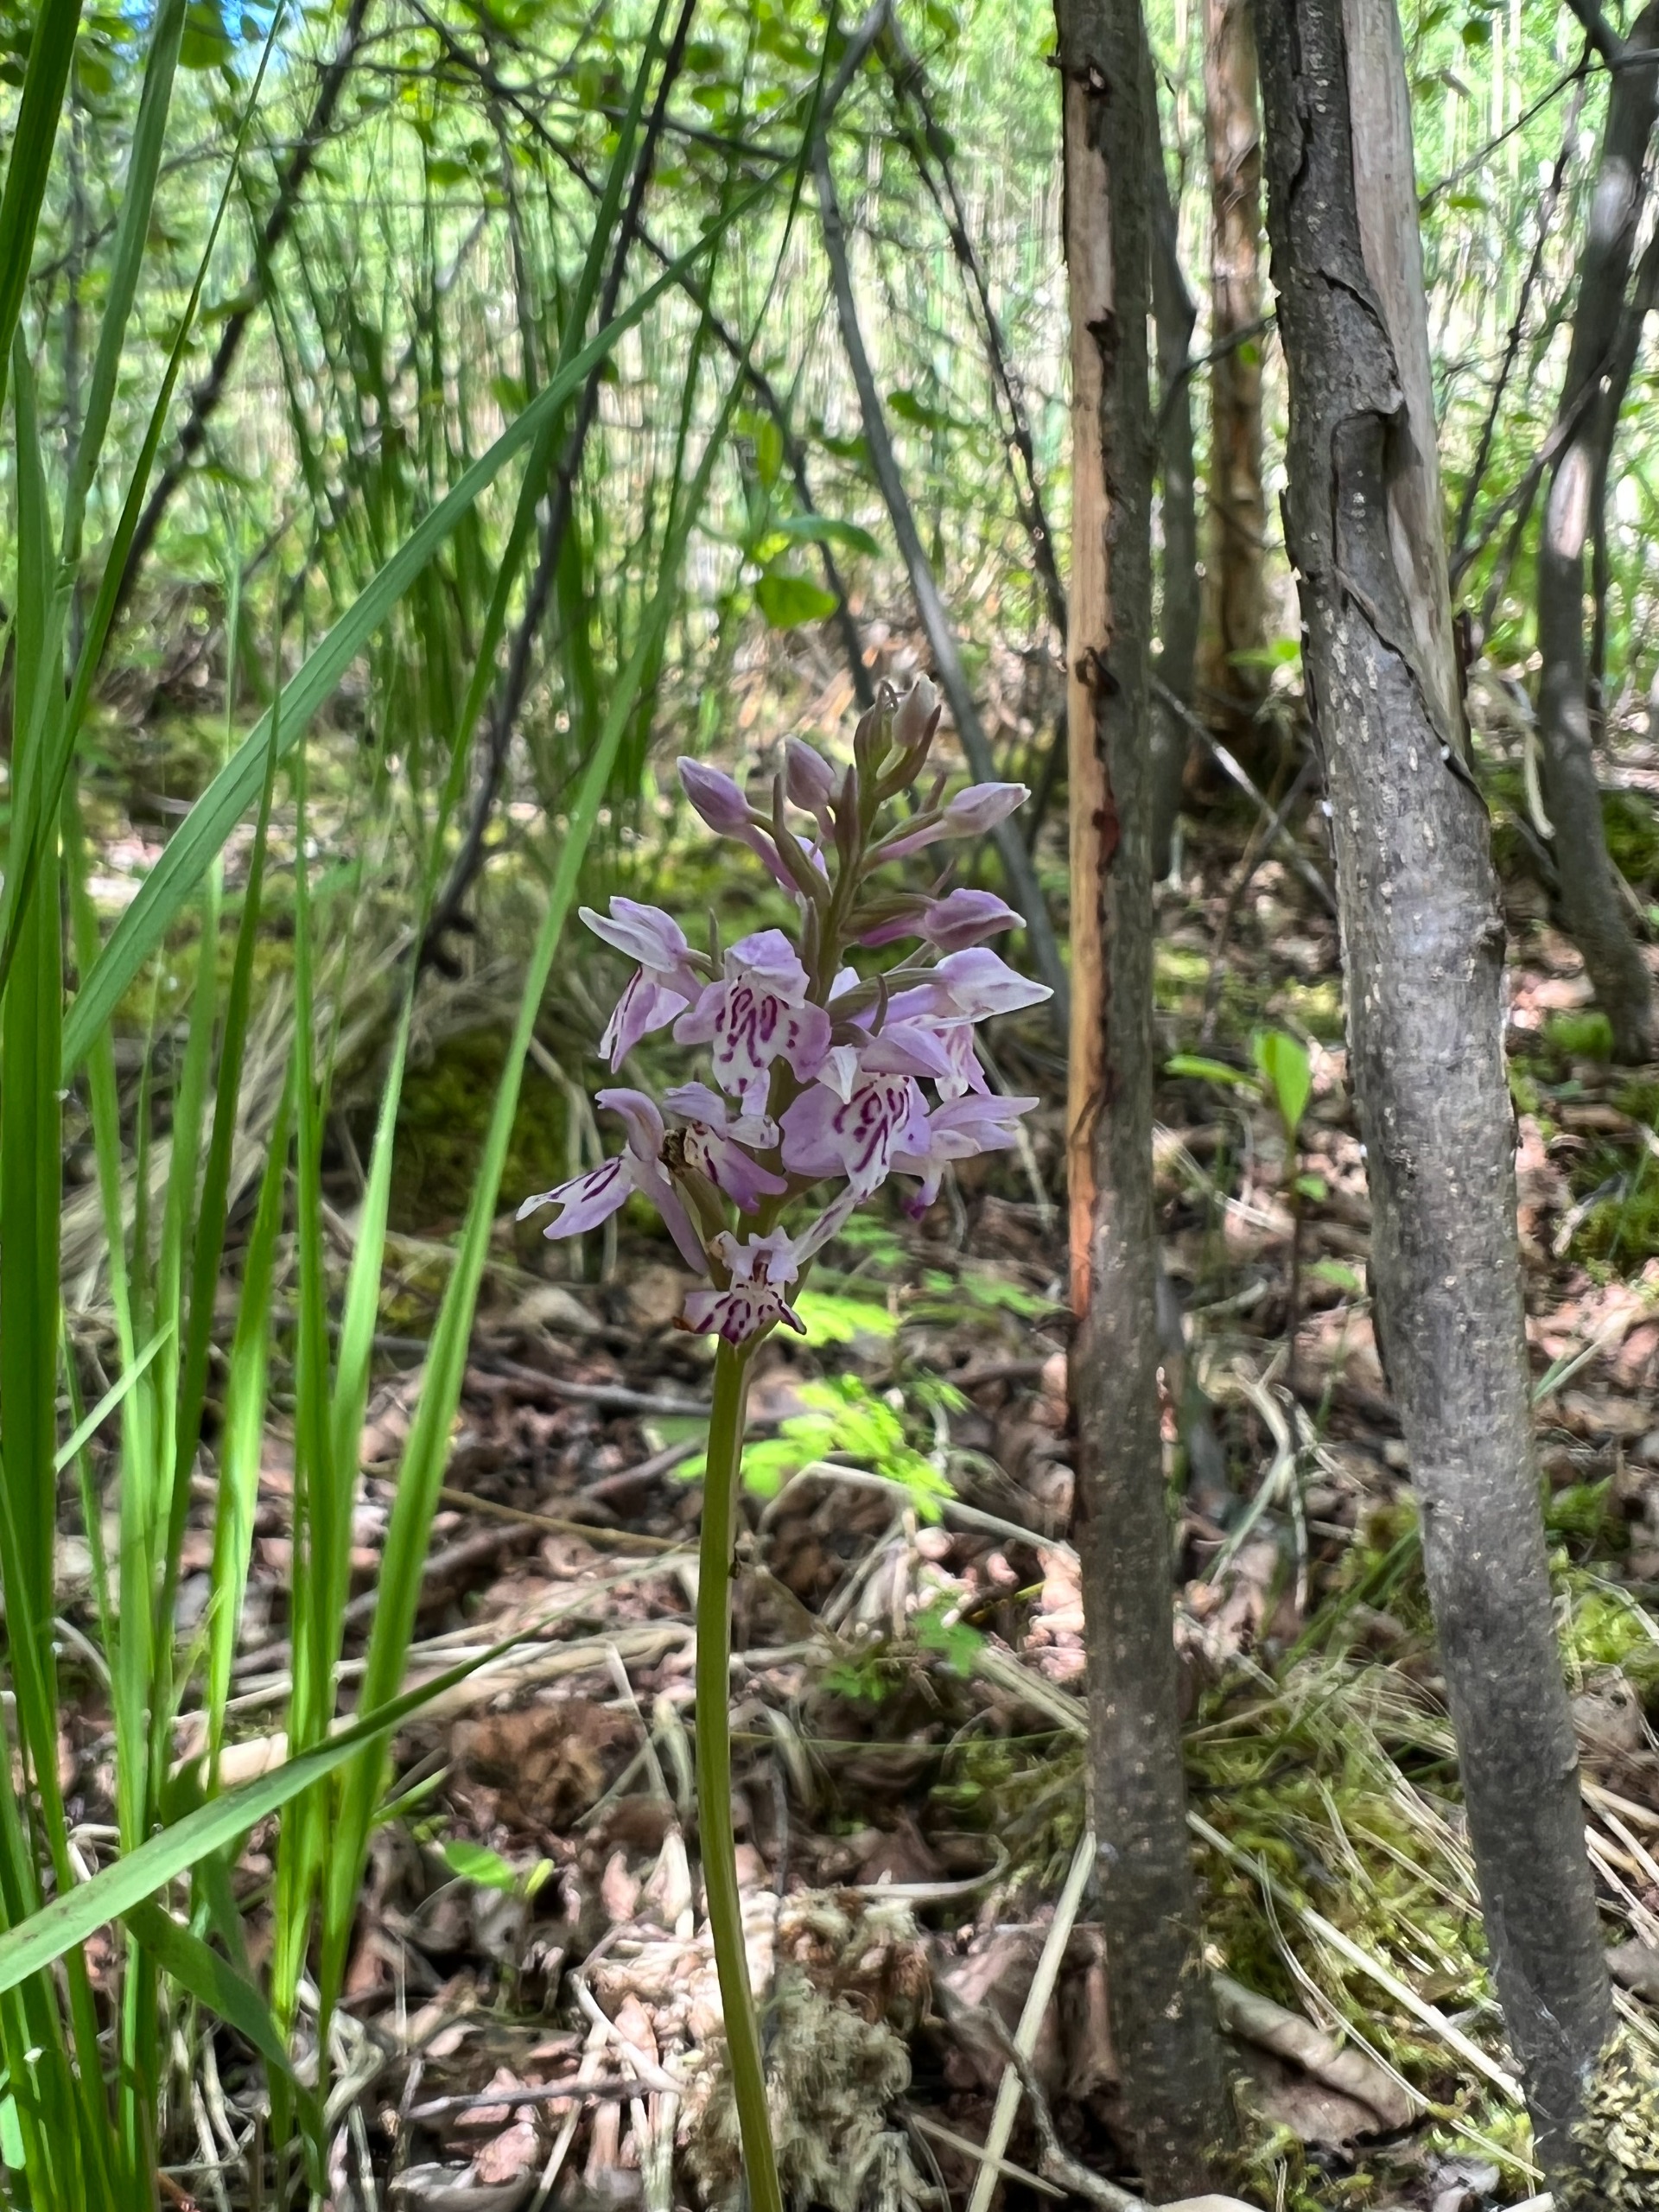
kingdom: Plantae
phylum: Tracheophyta
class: Liliopsida
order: Asparagales
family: Orchidaceae
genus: Dactylorhiza
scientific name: Dactylorhiza maculata
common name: Skov-gøgeurt
